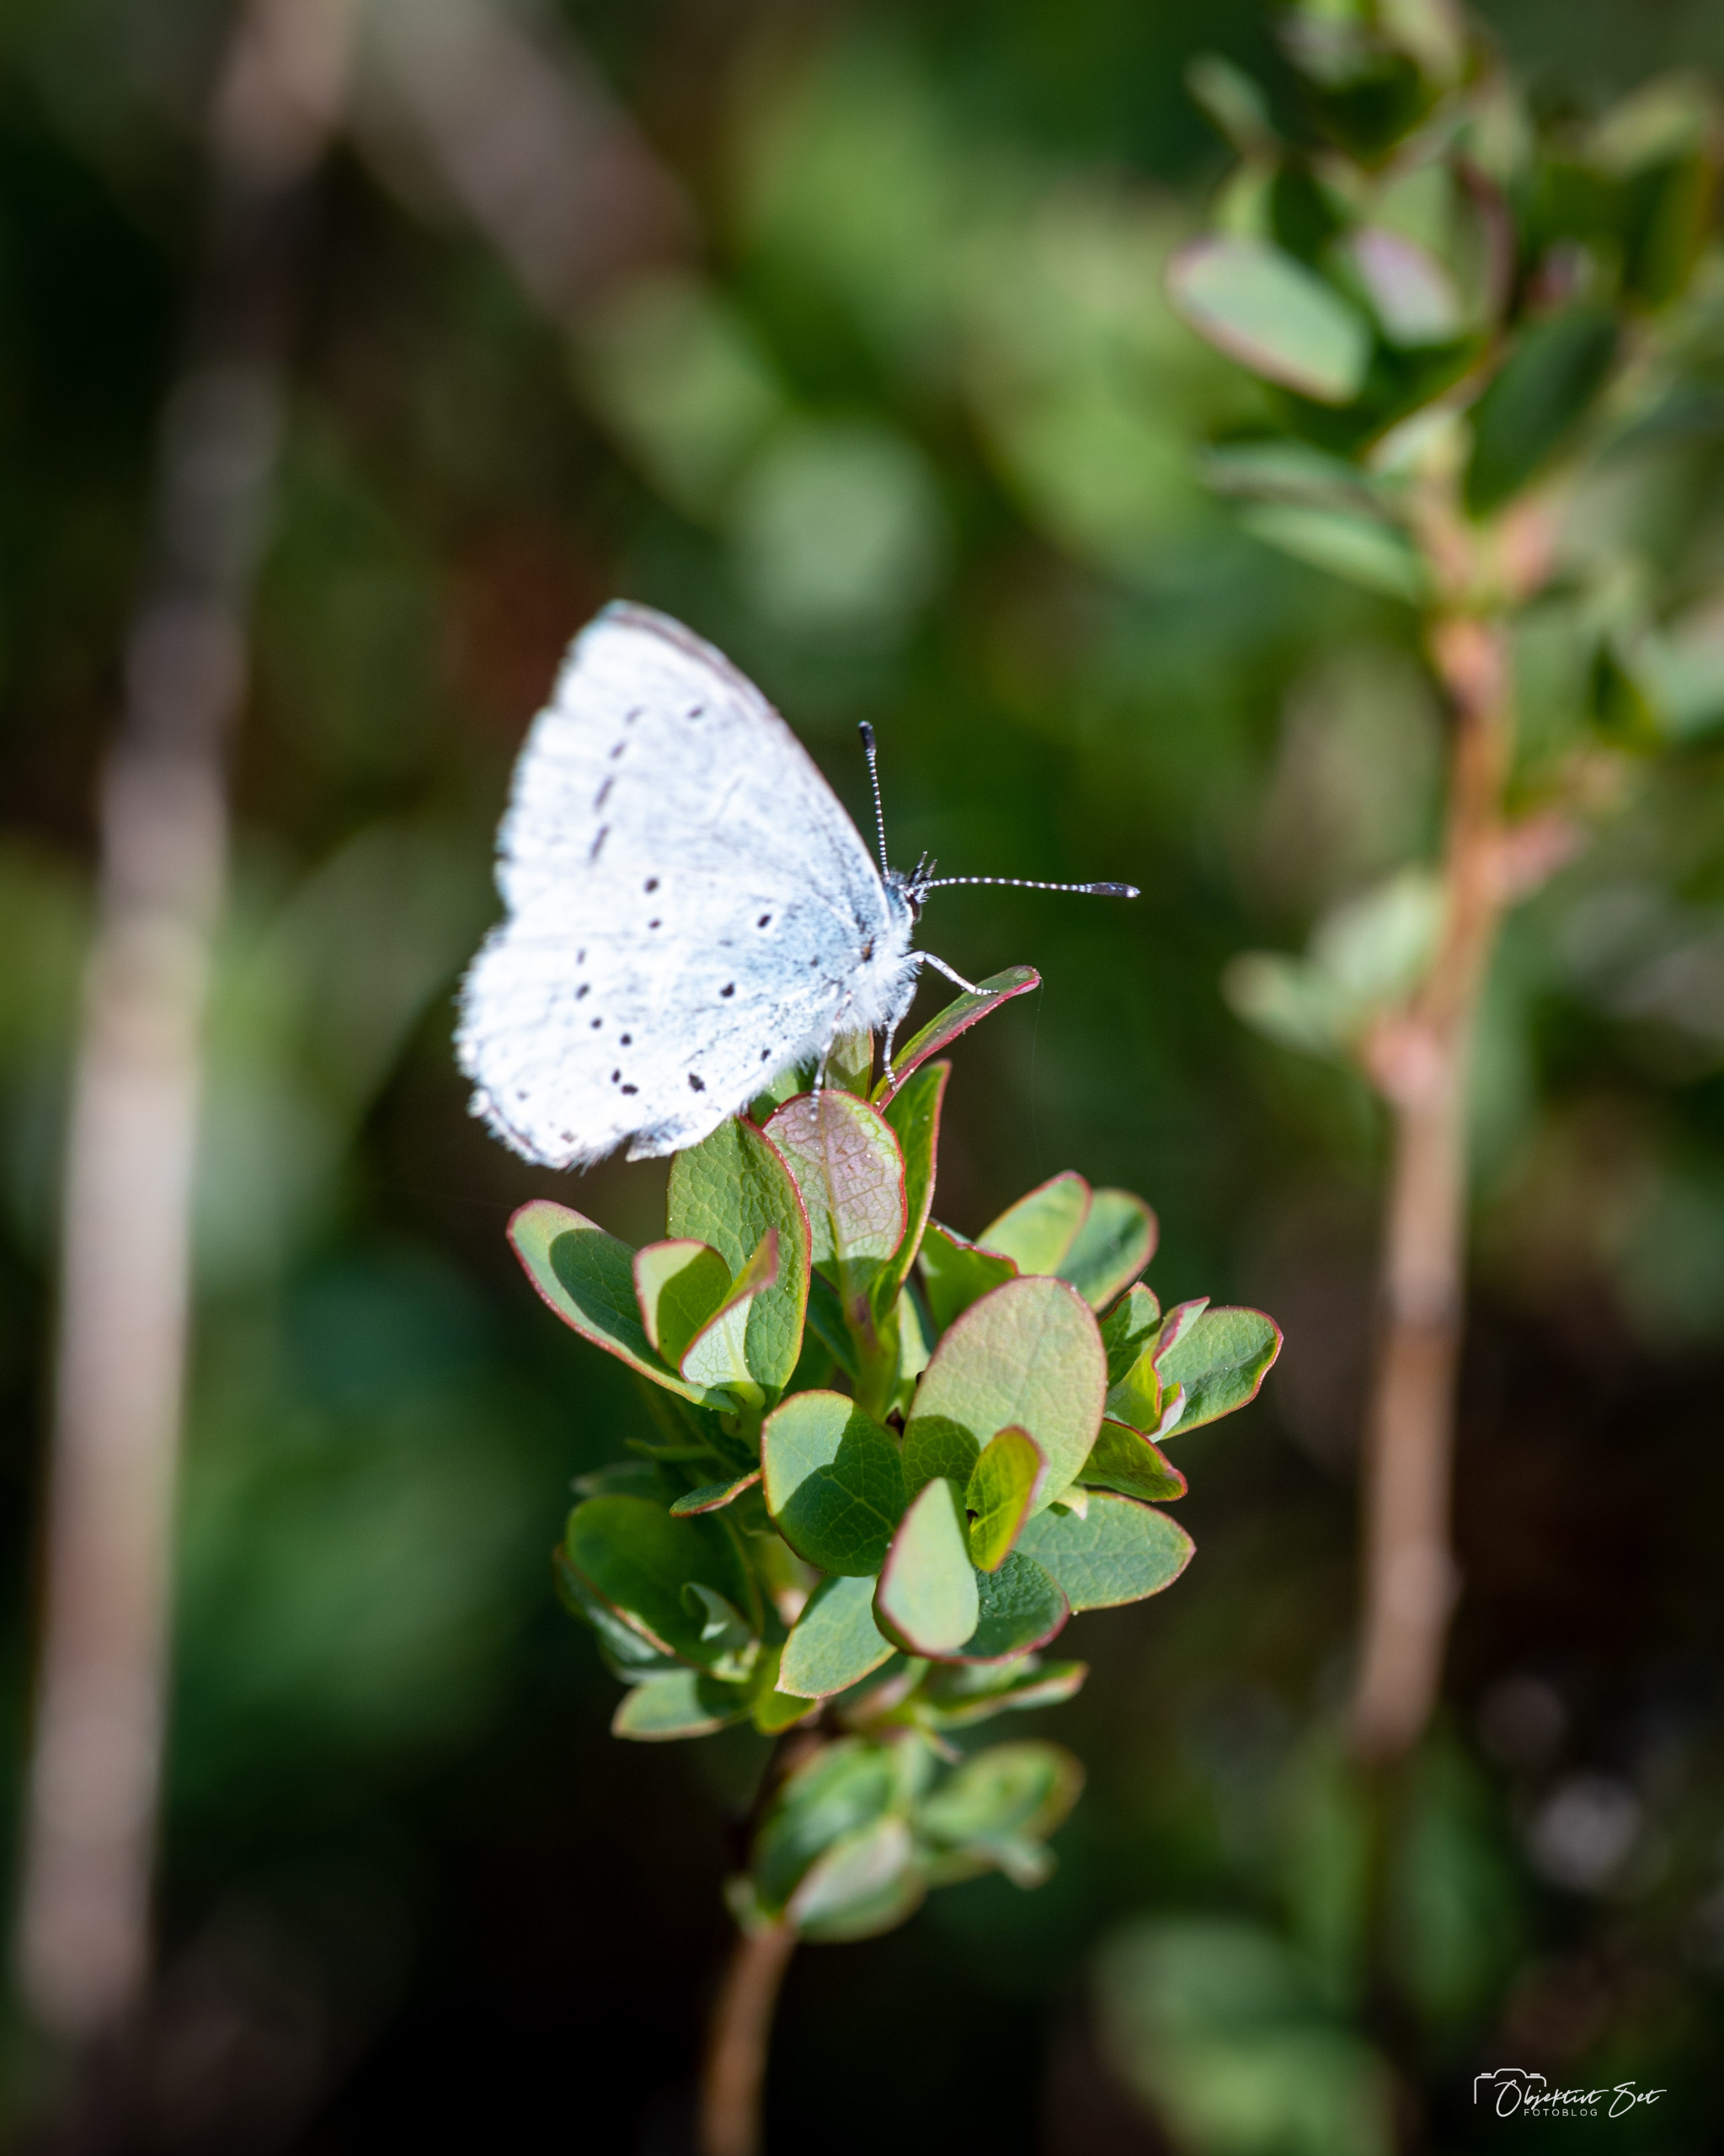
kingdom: Animalia
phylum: Arthropoda
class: Insecta
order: Lepidoptera
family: Lycaenidae
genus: Celastrina
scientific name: Celastrina argiolus
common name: Skovblåfugl
